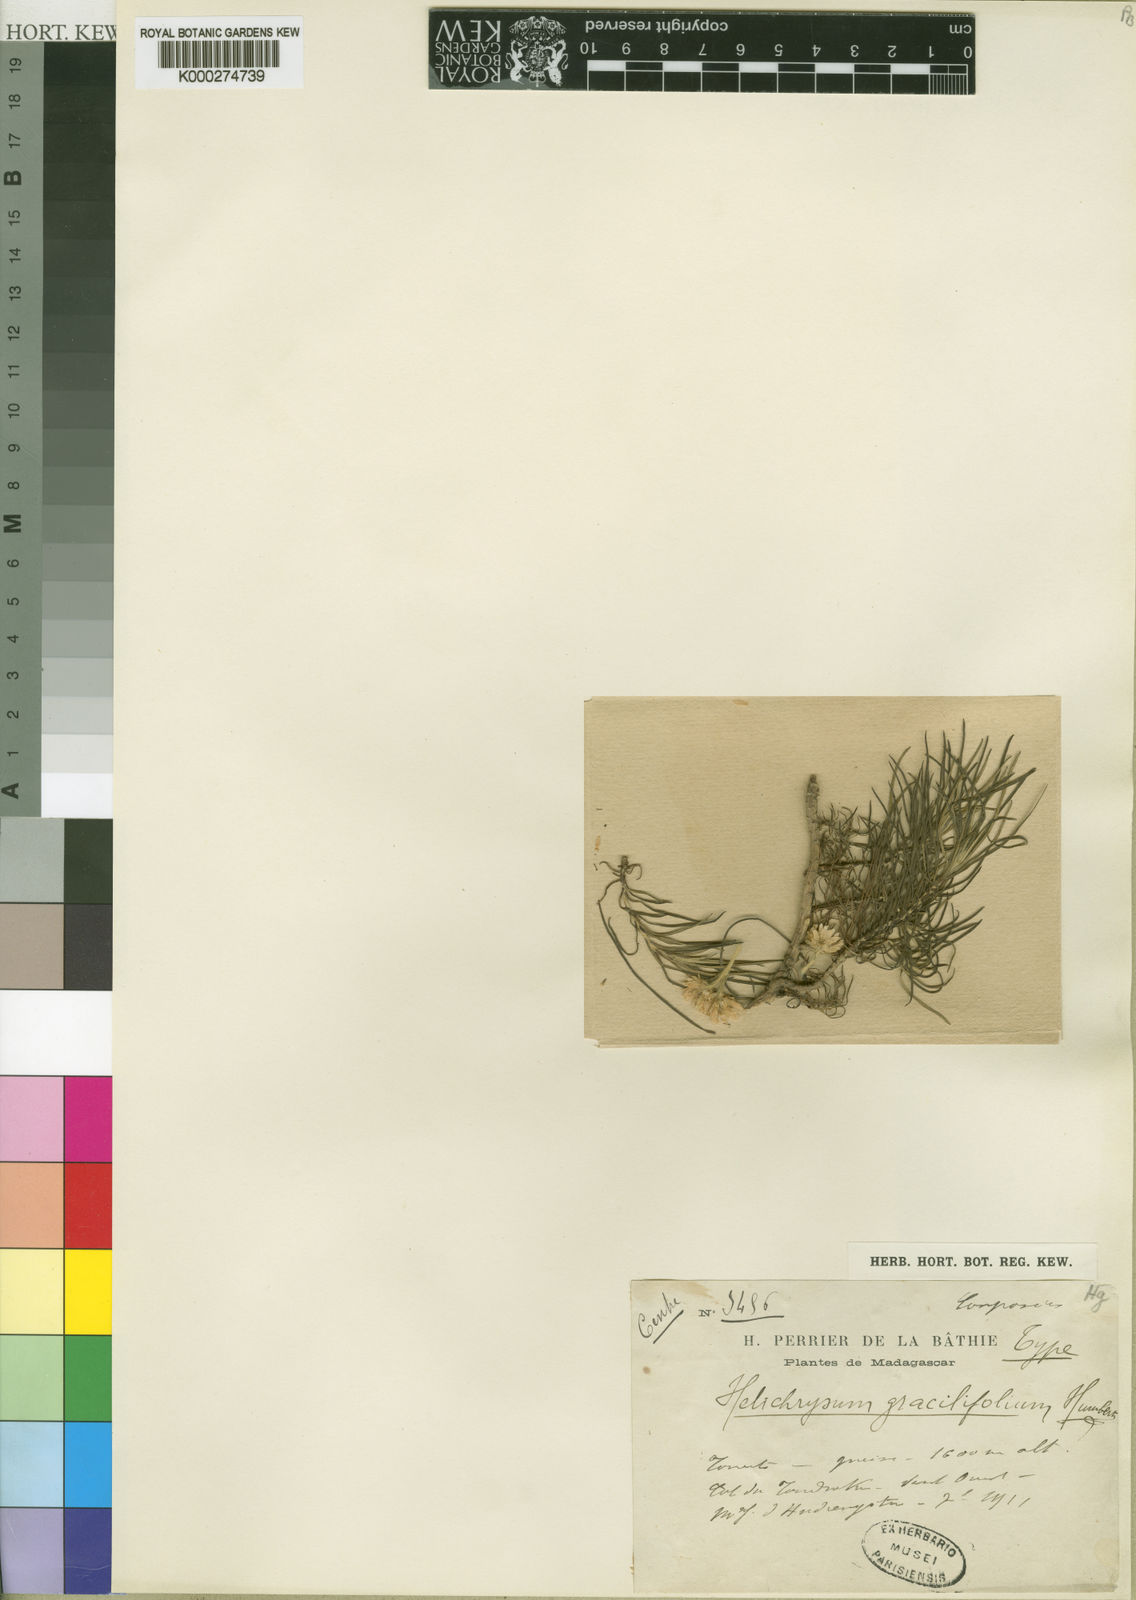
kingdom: Plantae
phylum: Tracheophyta
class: Magnoliopsida
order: Asterales
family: Asteraceae
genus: Helichrysum
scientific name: Helichrysum abietifolium
